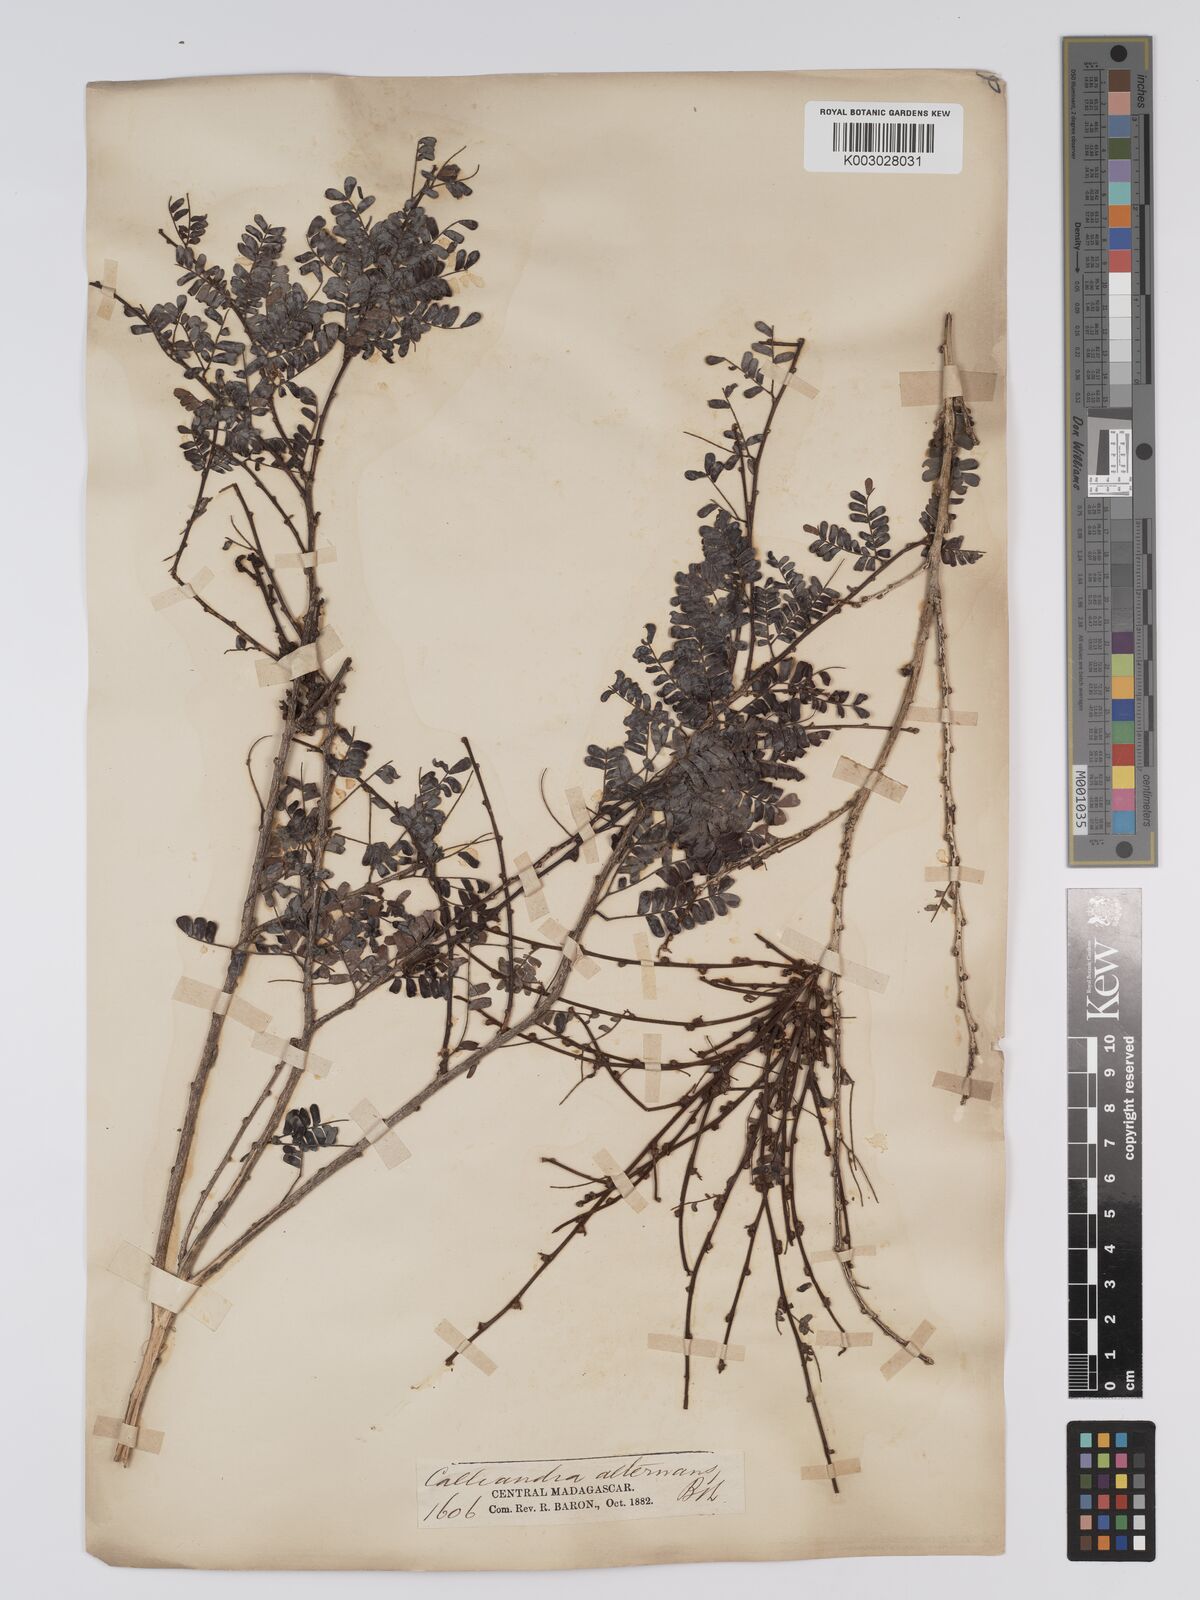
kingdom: Plantae
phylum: Tracheophyta
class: Magnoliopsida
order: Fabales
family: Fabaceae
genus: Viguieranthus
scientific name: Viguieranthus alternans
